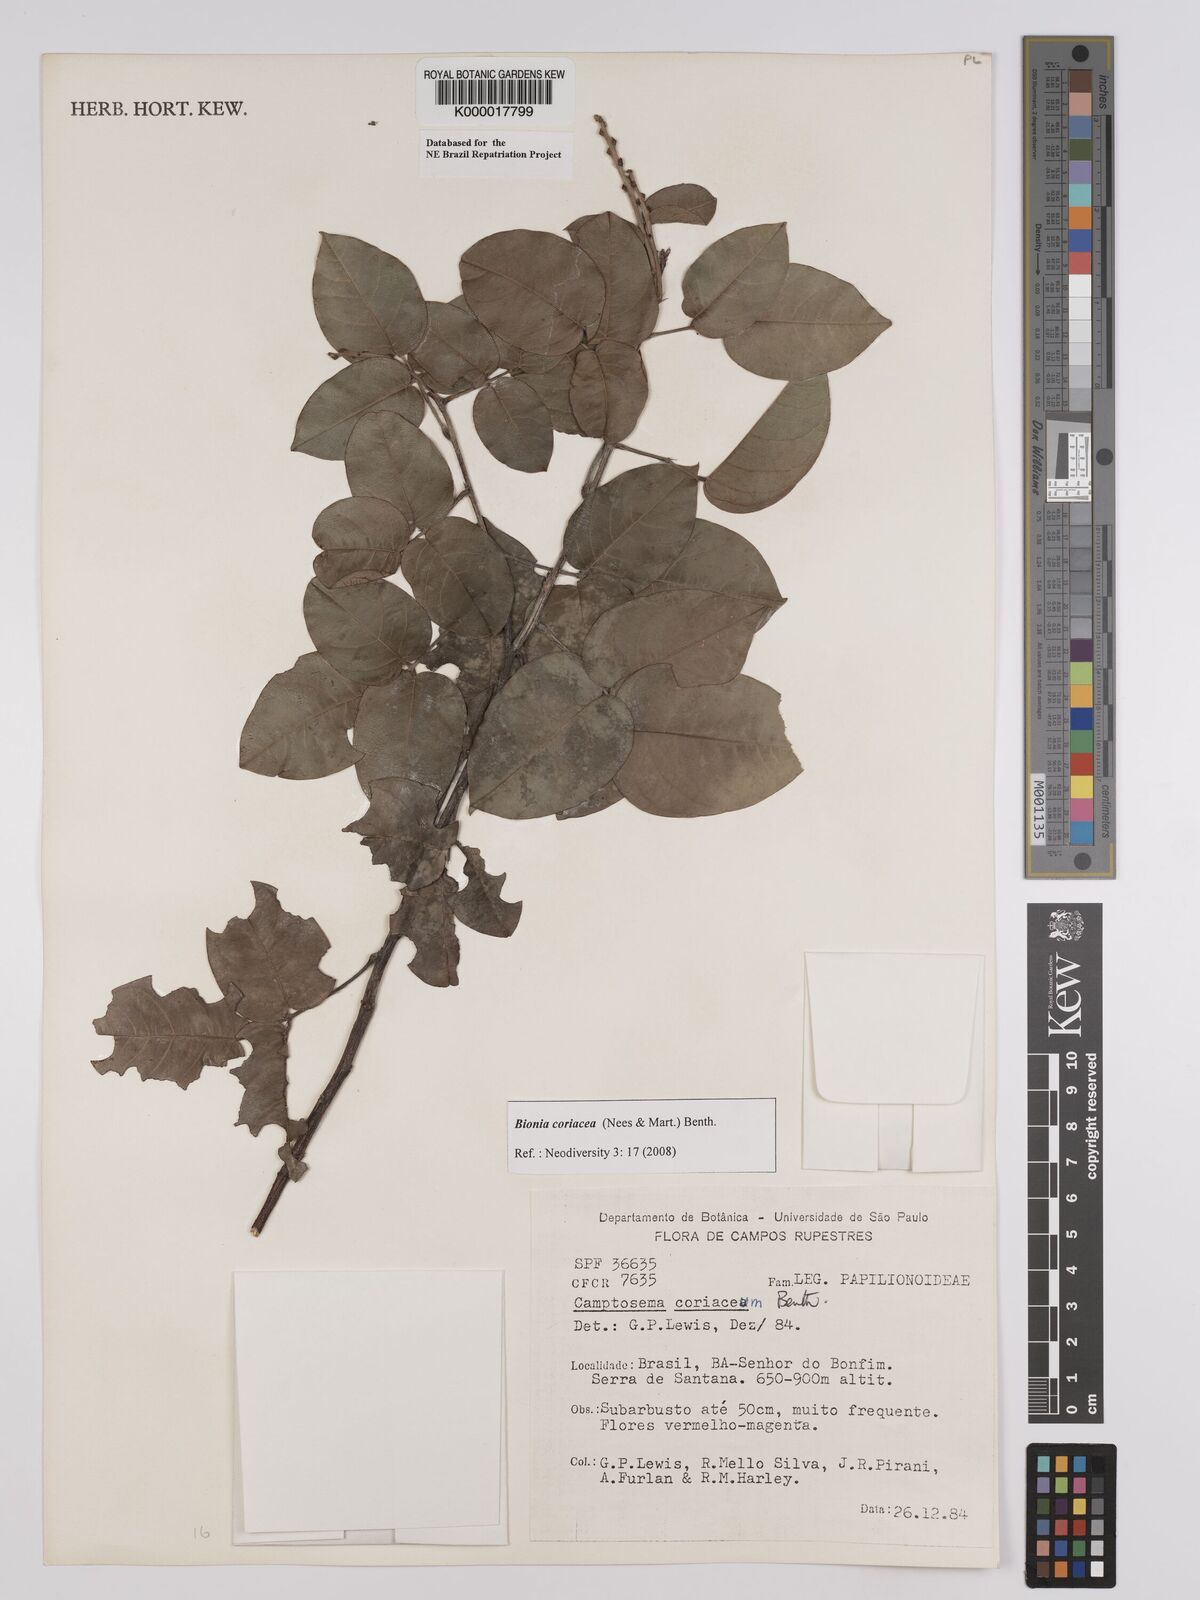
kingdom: Plantae
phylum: Tracheophyta
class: Magnoliopsida
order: Fabales
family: Fabaceae
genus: Camptosema
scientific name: Camptosema coriaceum
